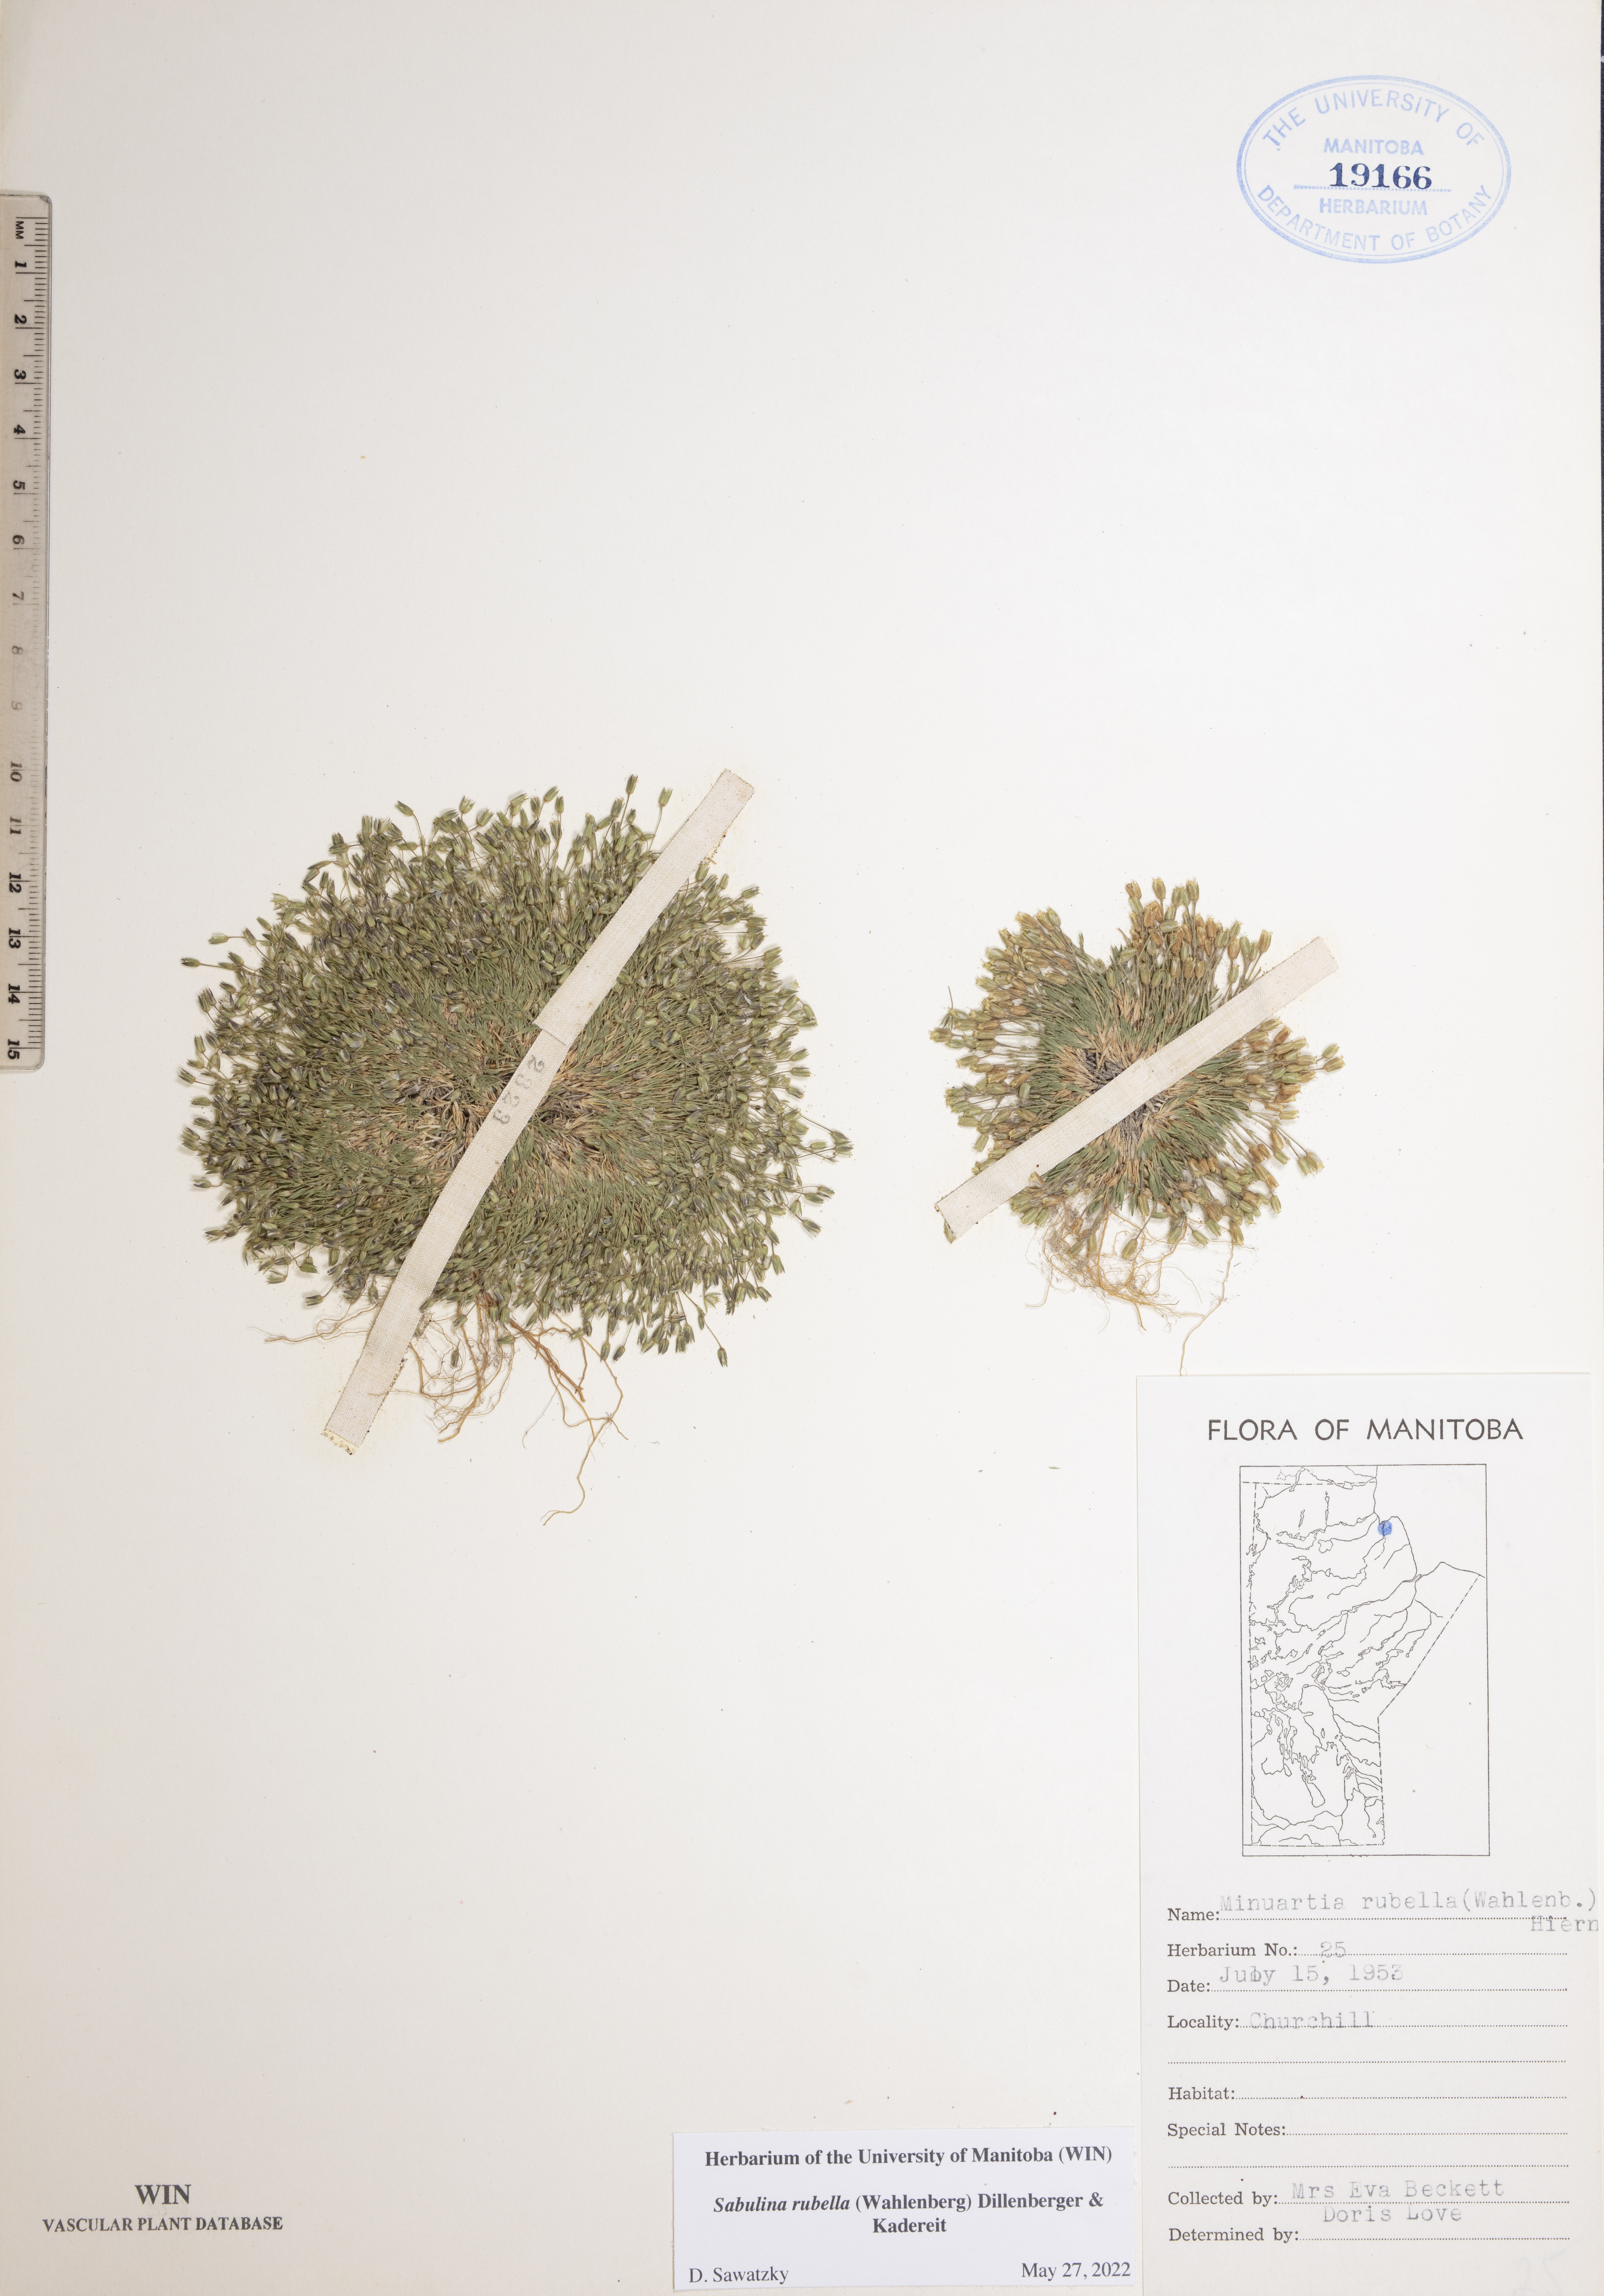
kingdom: Plantae
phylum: Tracheophyta
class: Magnoliopsida
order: Caryophyllales
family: Caryophyllaceae
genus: Sabulina
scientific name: Sabulina rubella
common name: Beautiful sandwort
